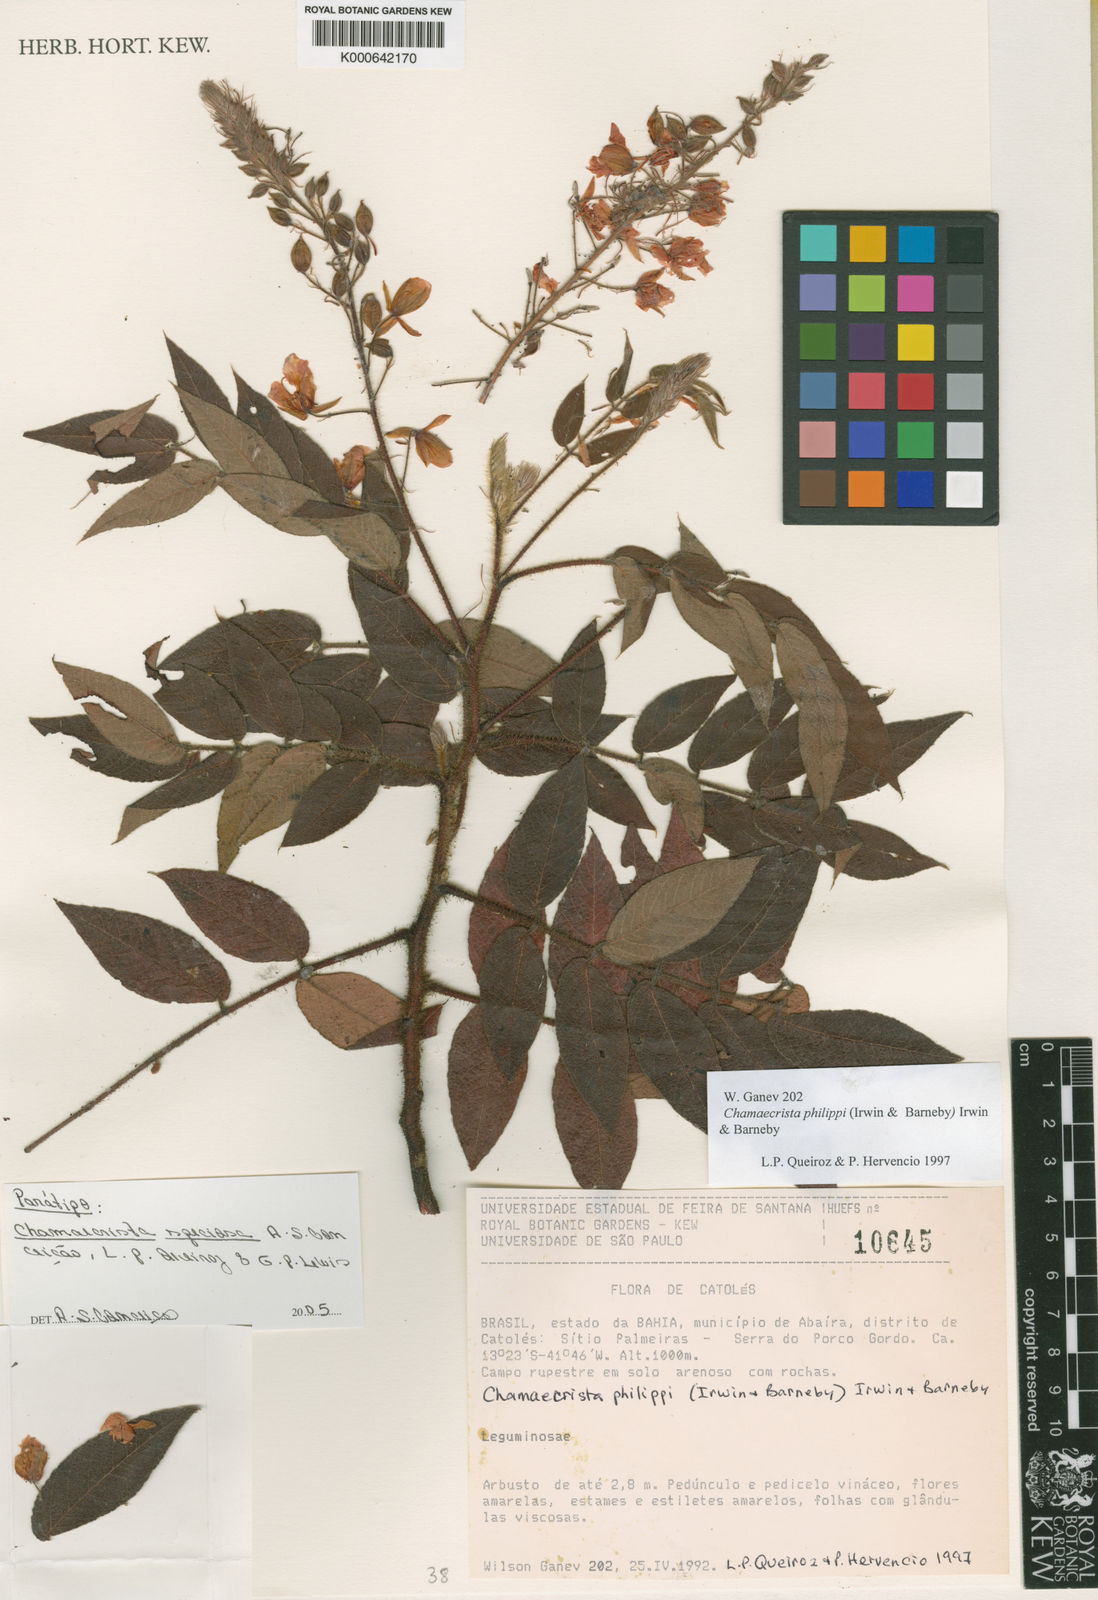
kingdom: Plantae
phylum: Tracheophyta
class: Magnoliopsida
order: Fabales
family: Fabaceae
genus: Chamaecrista
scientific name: Chamaecrista
